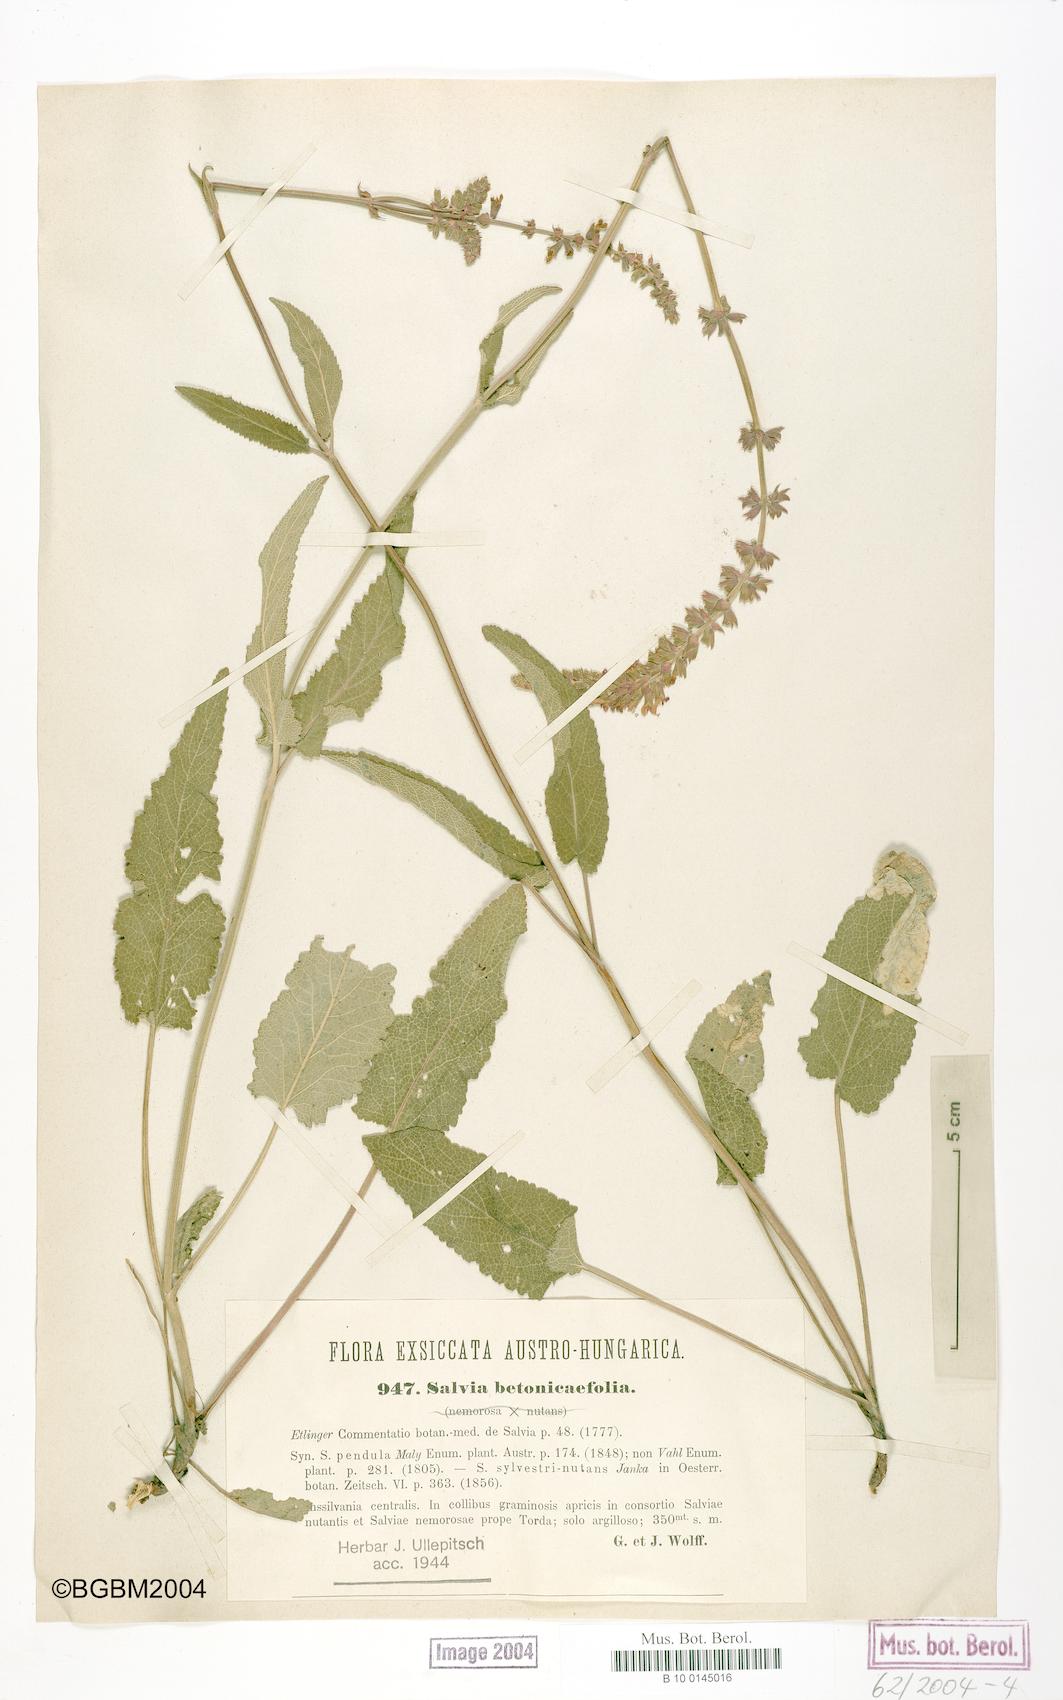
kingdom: Plantae
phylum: Tracheophyta
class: Magnoliopsida
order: Lamiales
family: Lamiaceae
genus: Salvia
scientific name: Salvia
